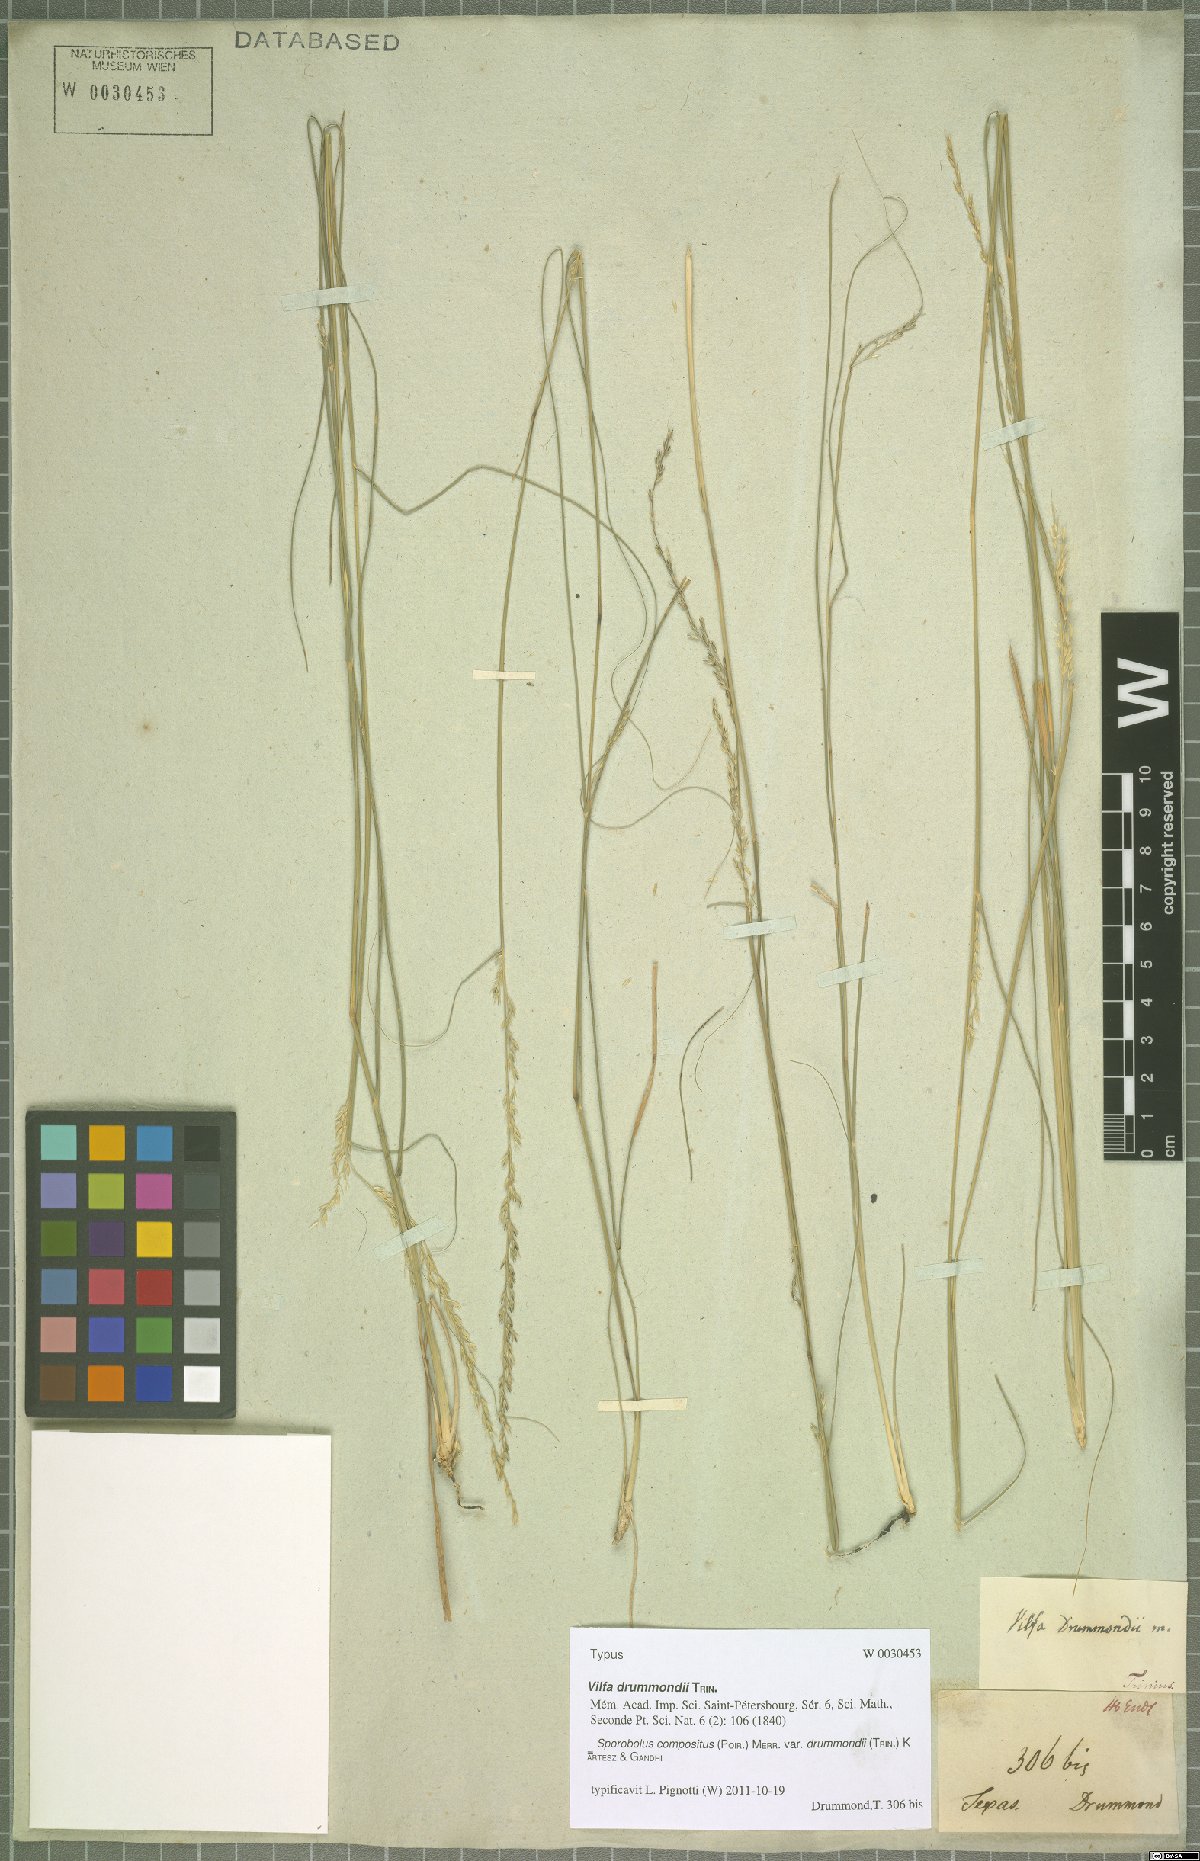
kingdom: Plantae
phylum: Tracheophyta
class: Liliopsida
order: Poales
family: Poaceae
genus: Sporobolus
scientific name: Sporobolus compositus
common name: Rough dropseed
